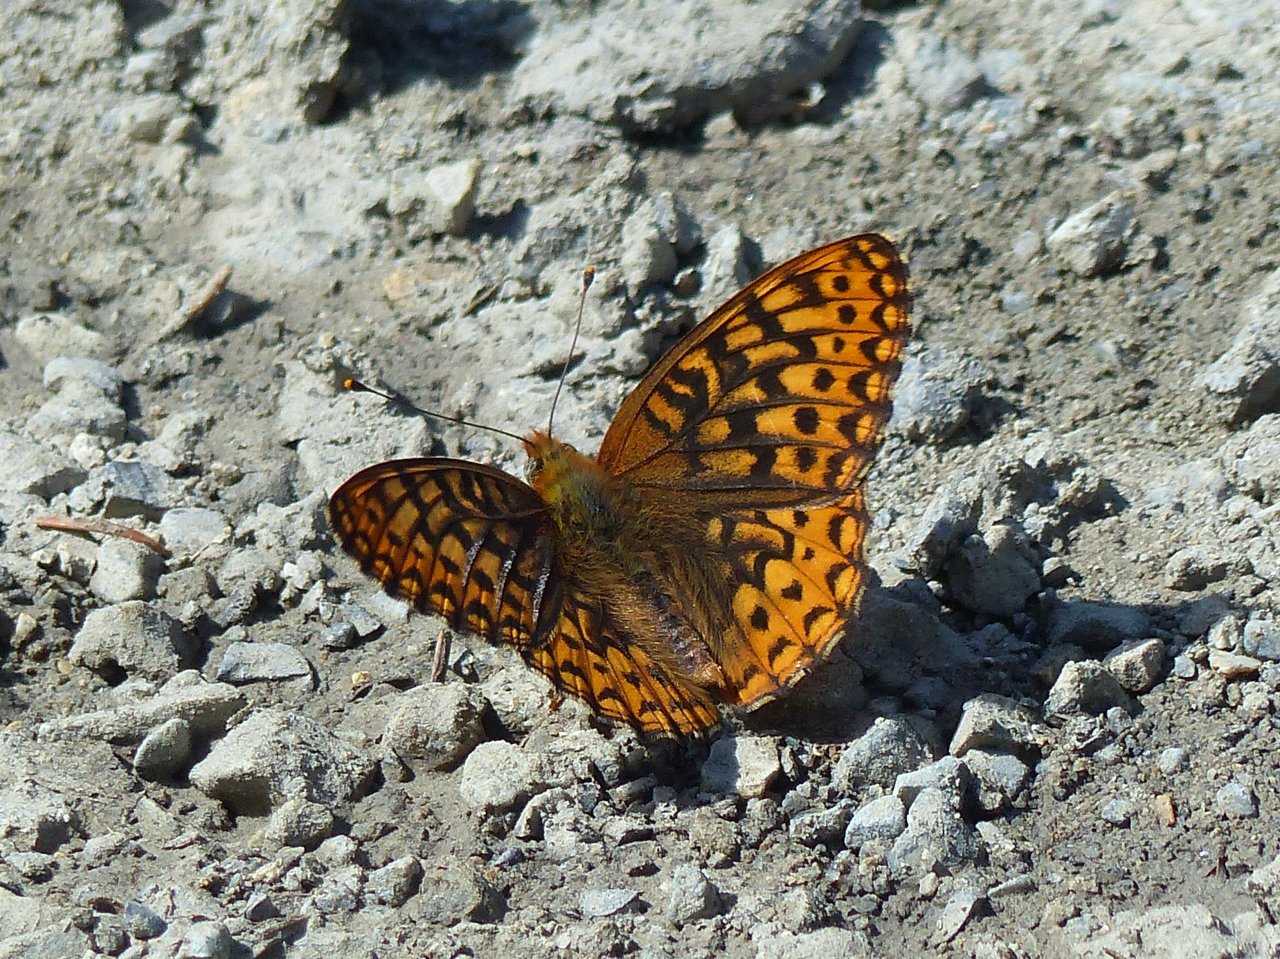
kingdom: Animalia
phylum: Arthropoda
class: Insecta
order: Lepidoptera
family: Nymphalidae
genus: Speyeria
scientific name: Speyeria hydaspe
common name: Hydaspe Fritillary
